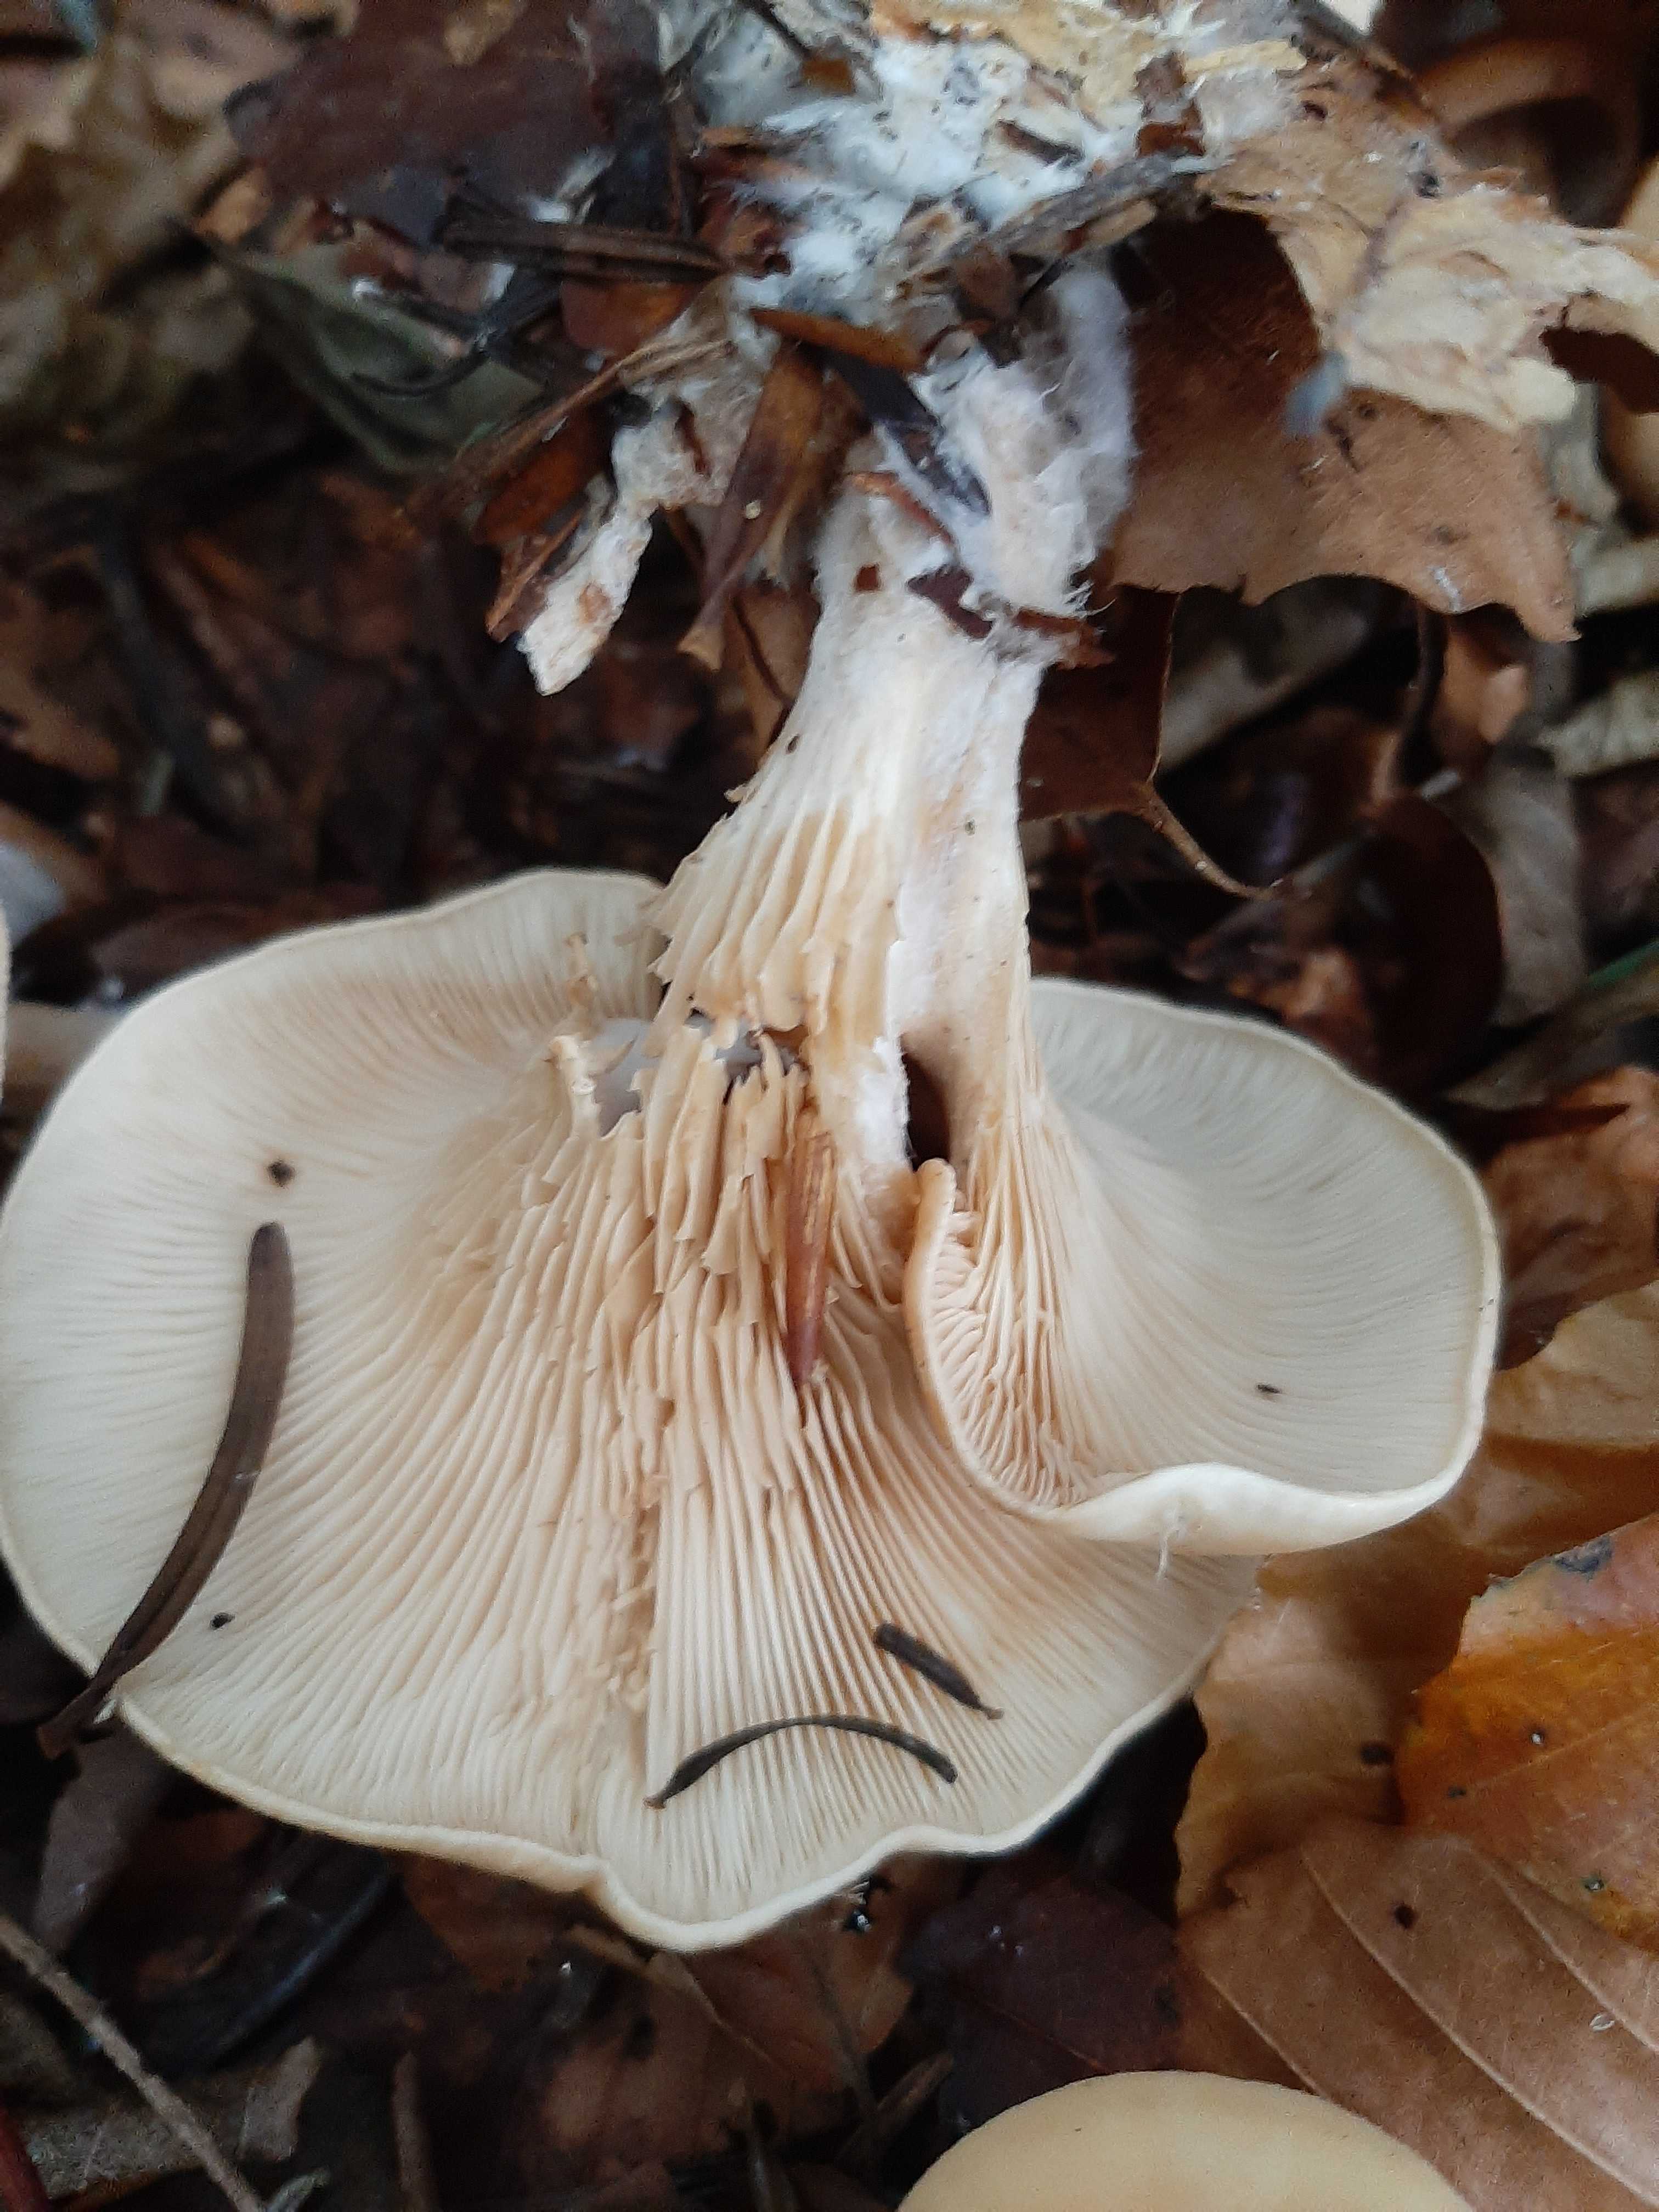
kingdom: Fungi
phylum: Basidiomycota
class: Agaricomycetes
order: Agaricales
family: Tricholomataceae
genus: Paralepista
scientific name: Paralepista
